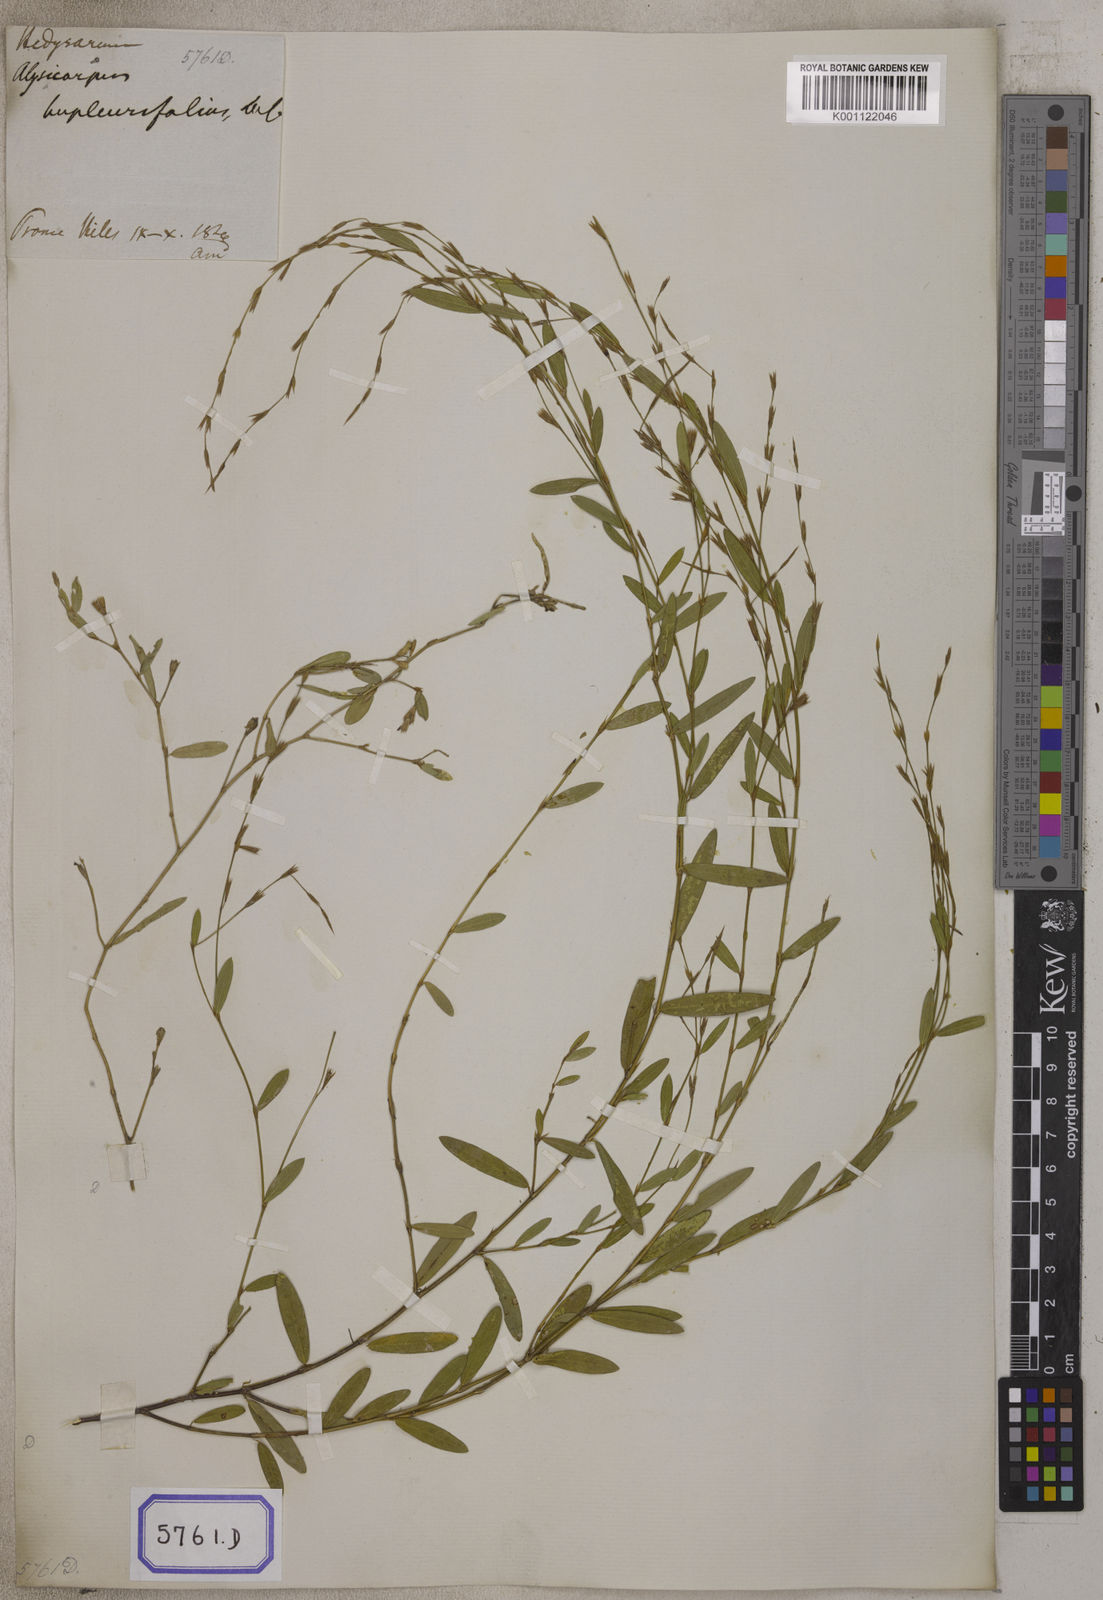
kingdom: Plantae
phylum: Tracheophyta
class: Magnoliopsida
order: Fabales
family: Fabaceae
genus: Alysicarpus
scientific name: Alysicarpus bupleurifolius
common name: Sweet alys
